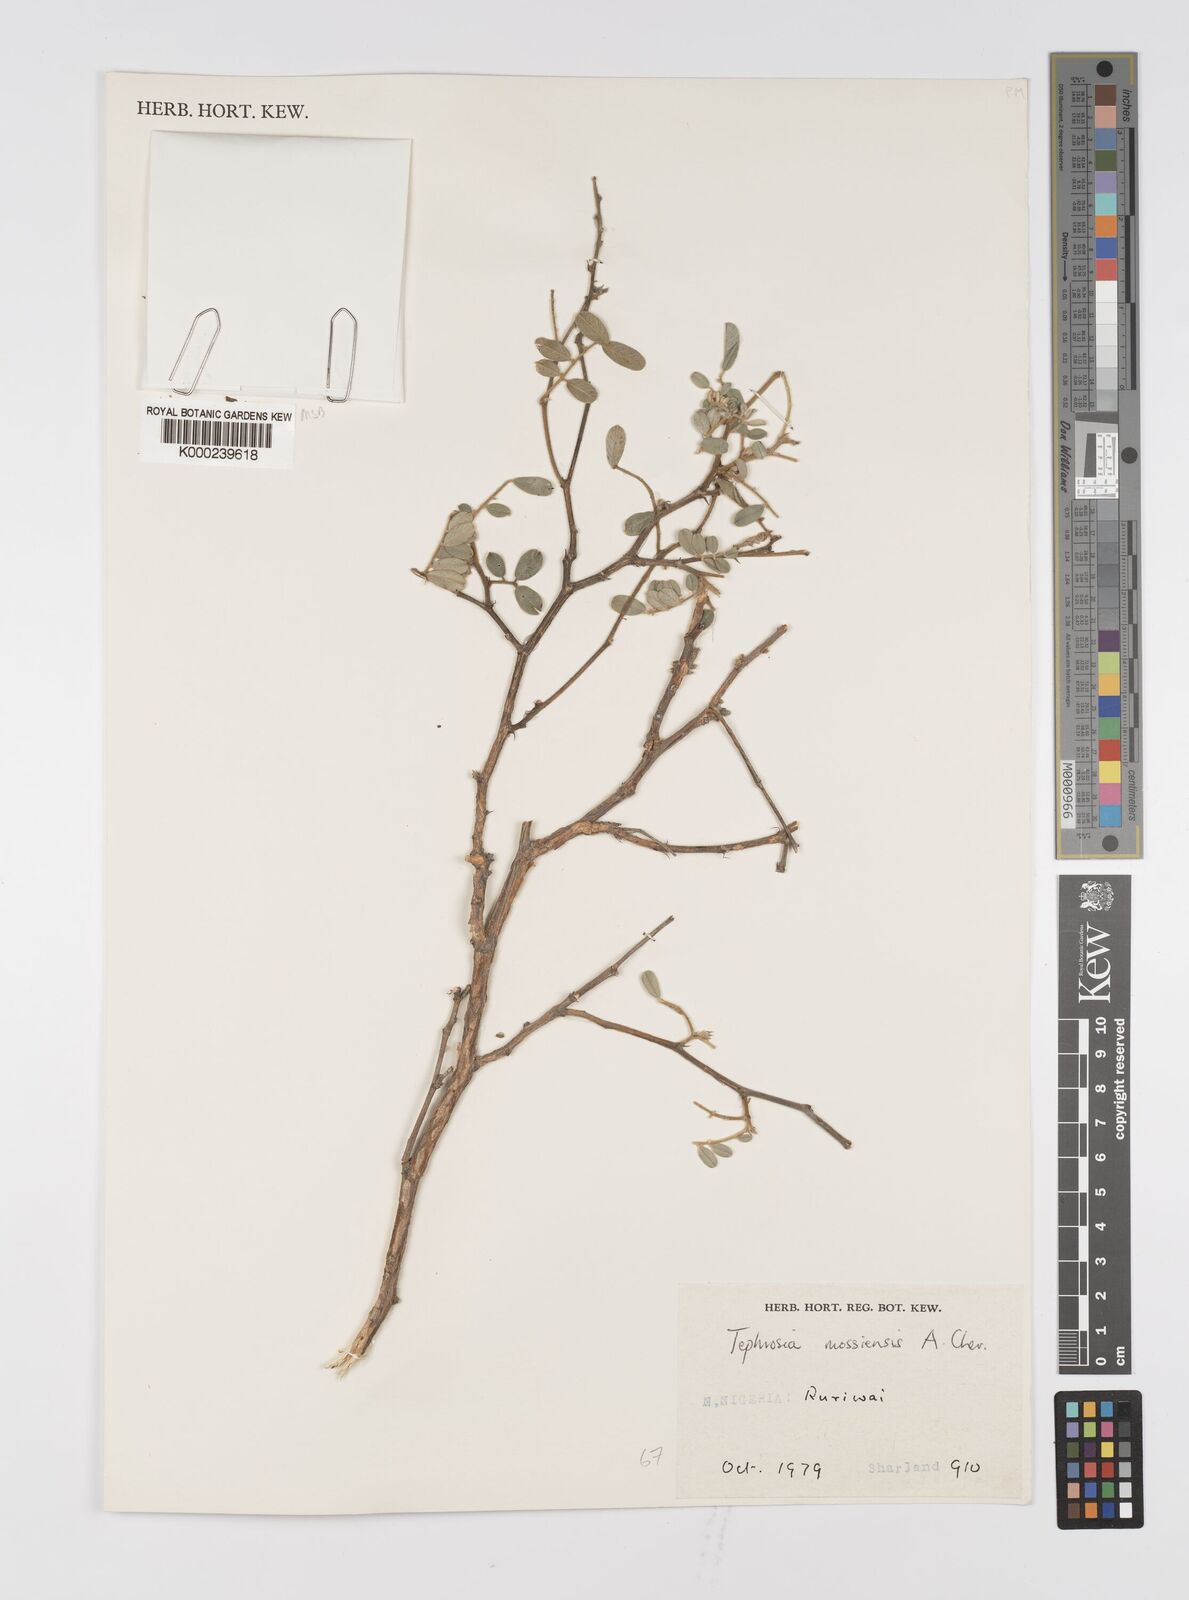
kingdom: Plantae
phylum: Tracheophyta
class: Magnoliopsida
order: Fabales
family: Fabaceae
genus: Tephrosia
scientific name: Tephrosia mossiensis
